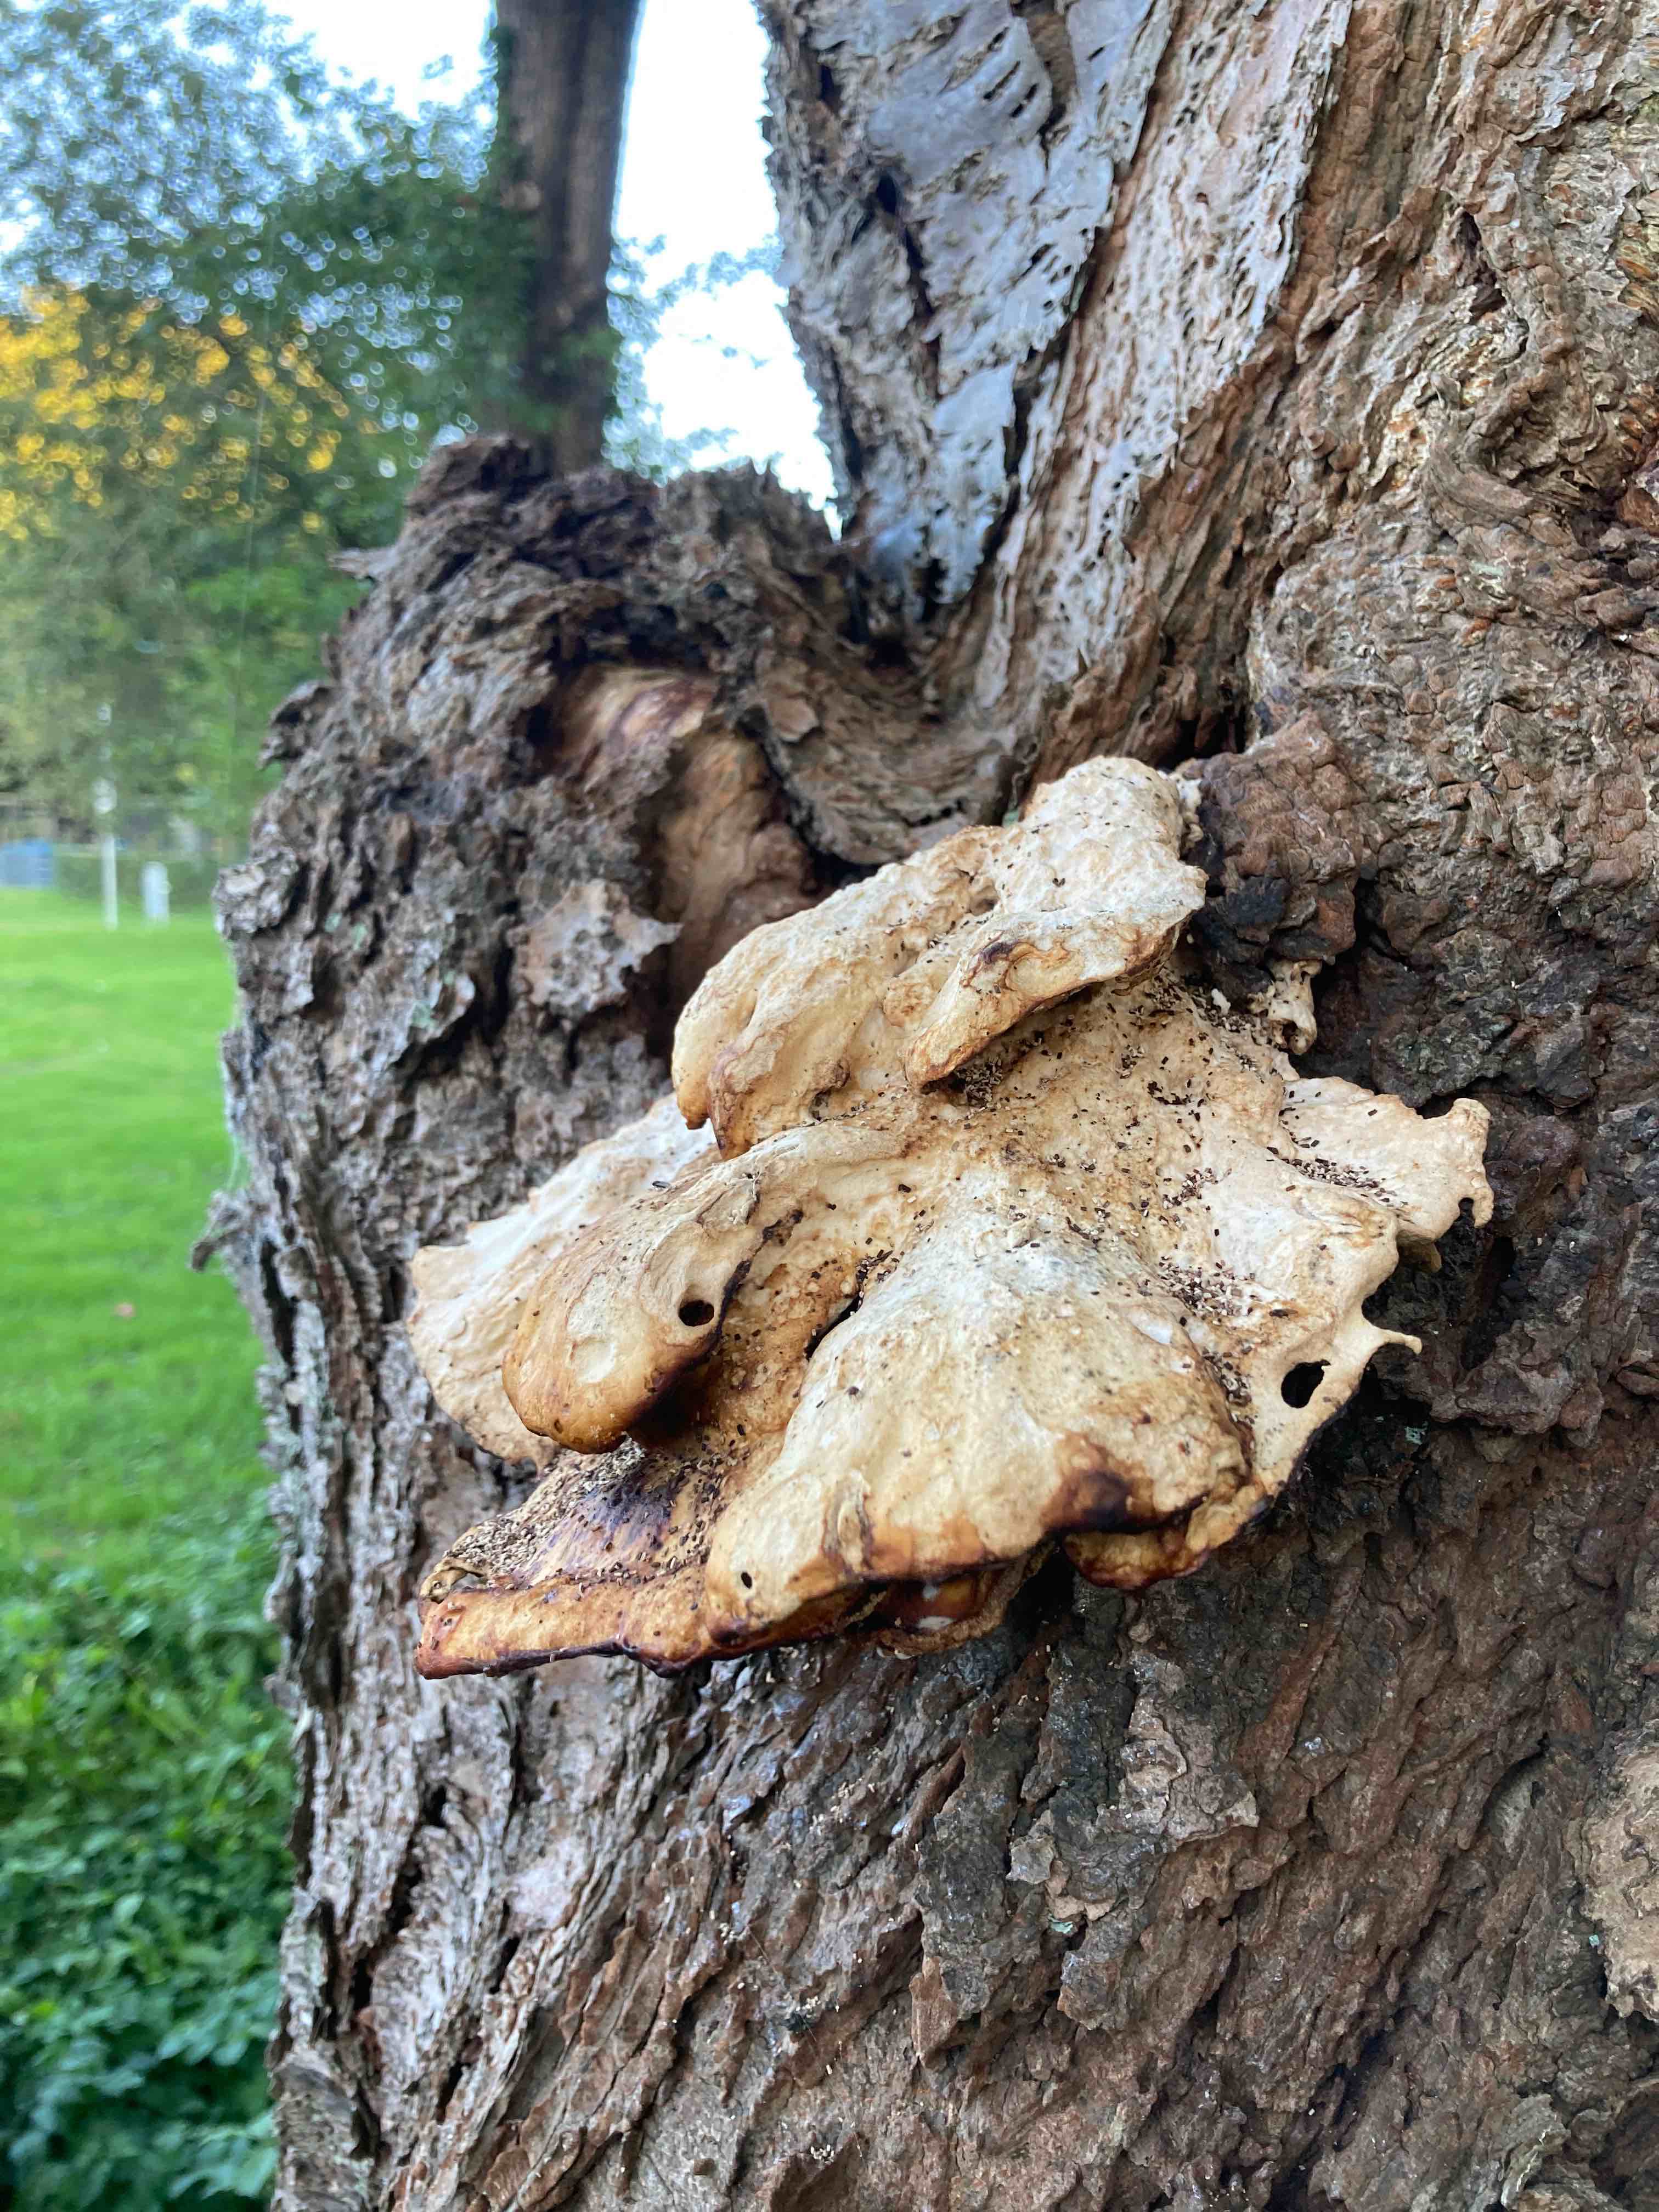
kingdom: Fungi
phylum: Basidiomycota
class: Agaricomycetes
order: Polyporales
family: Laetiporaceae
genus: Laetiporus
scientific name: Laetiporus sulphureus
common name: svovlporesvamp
